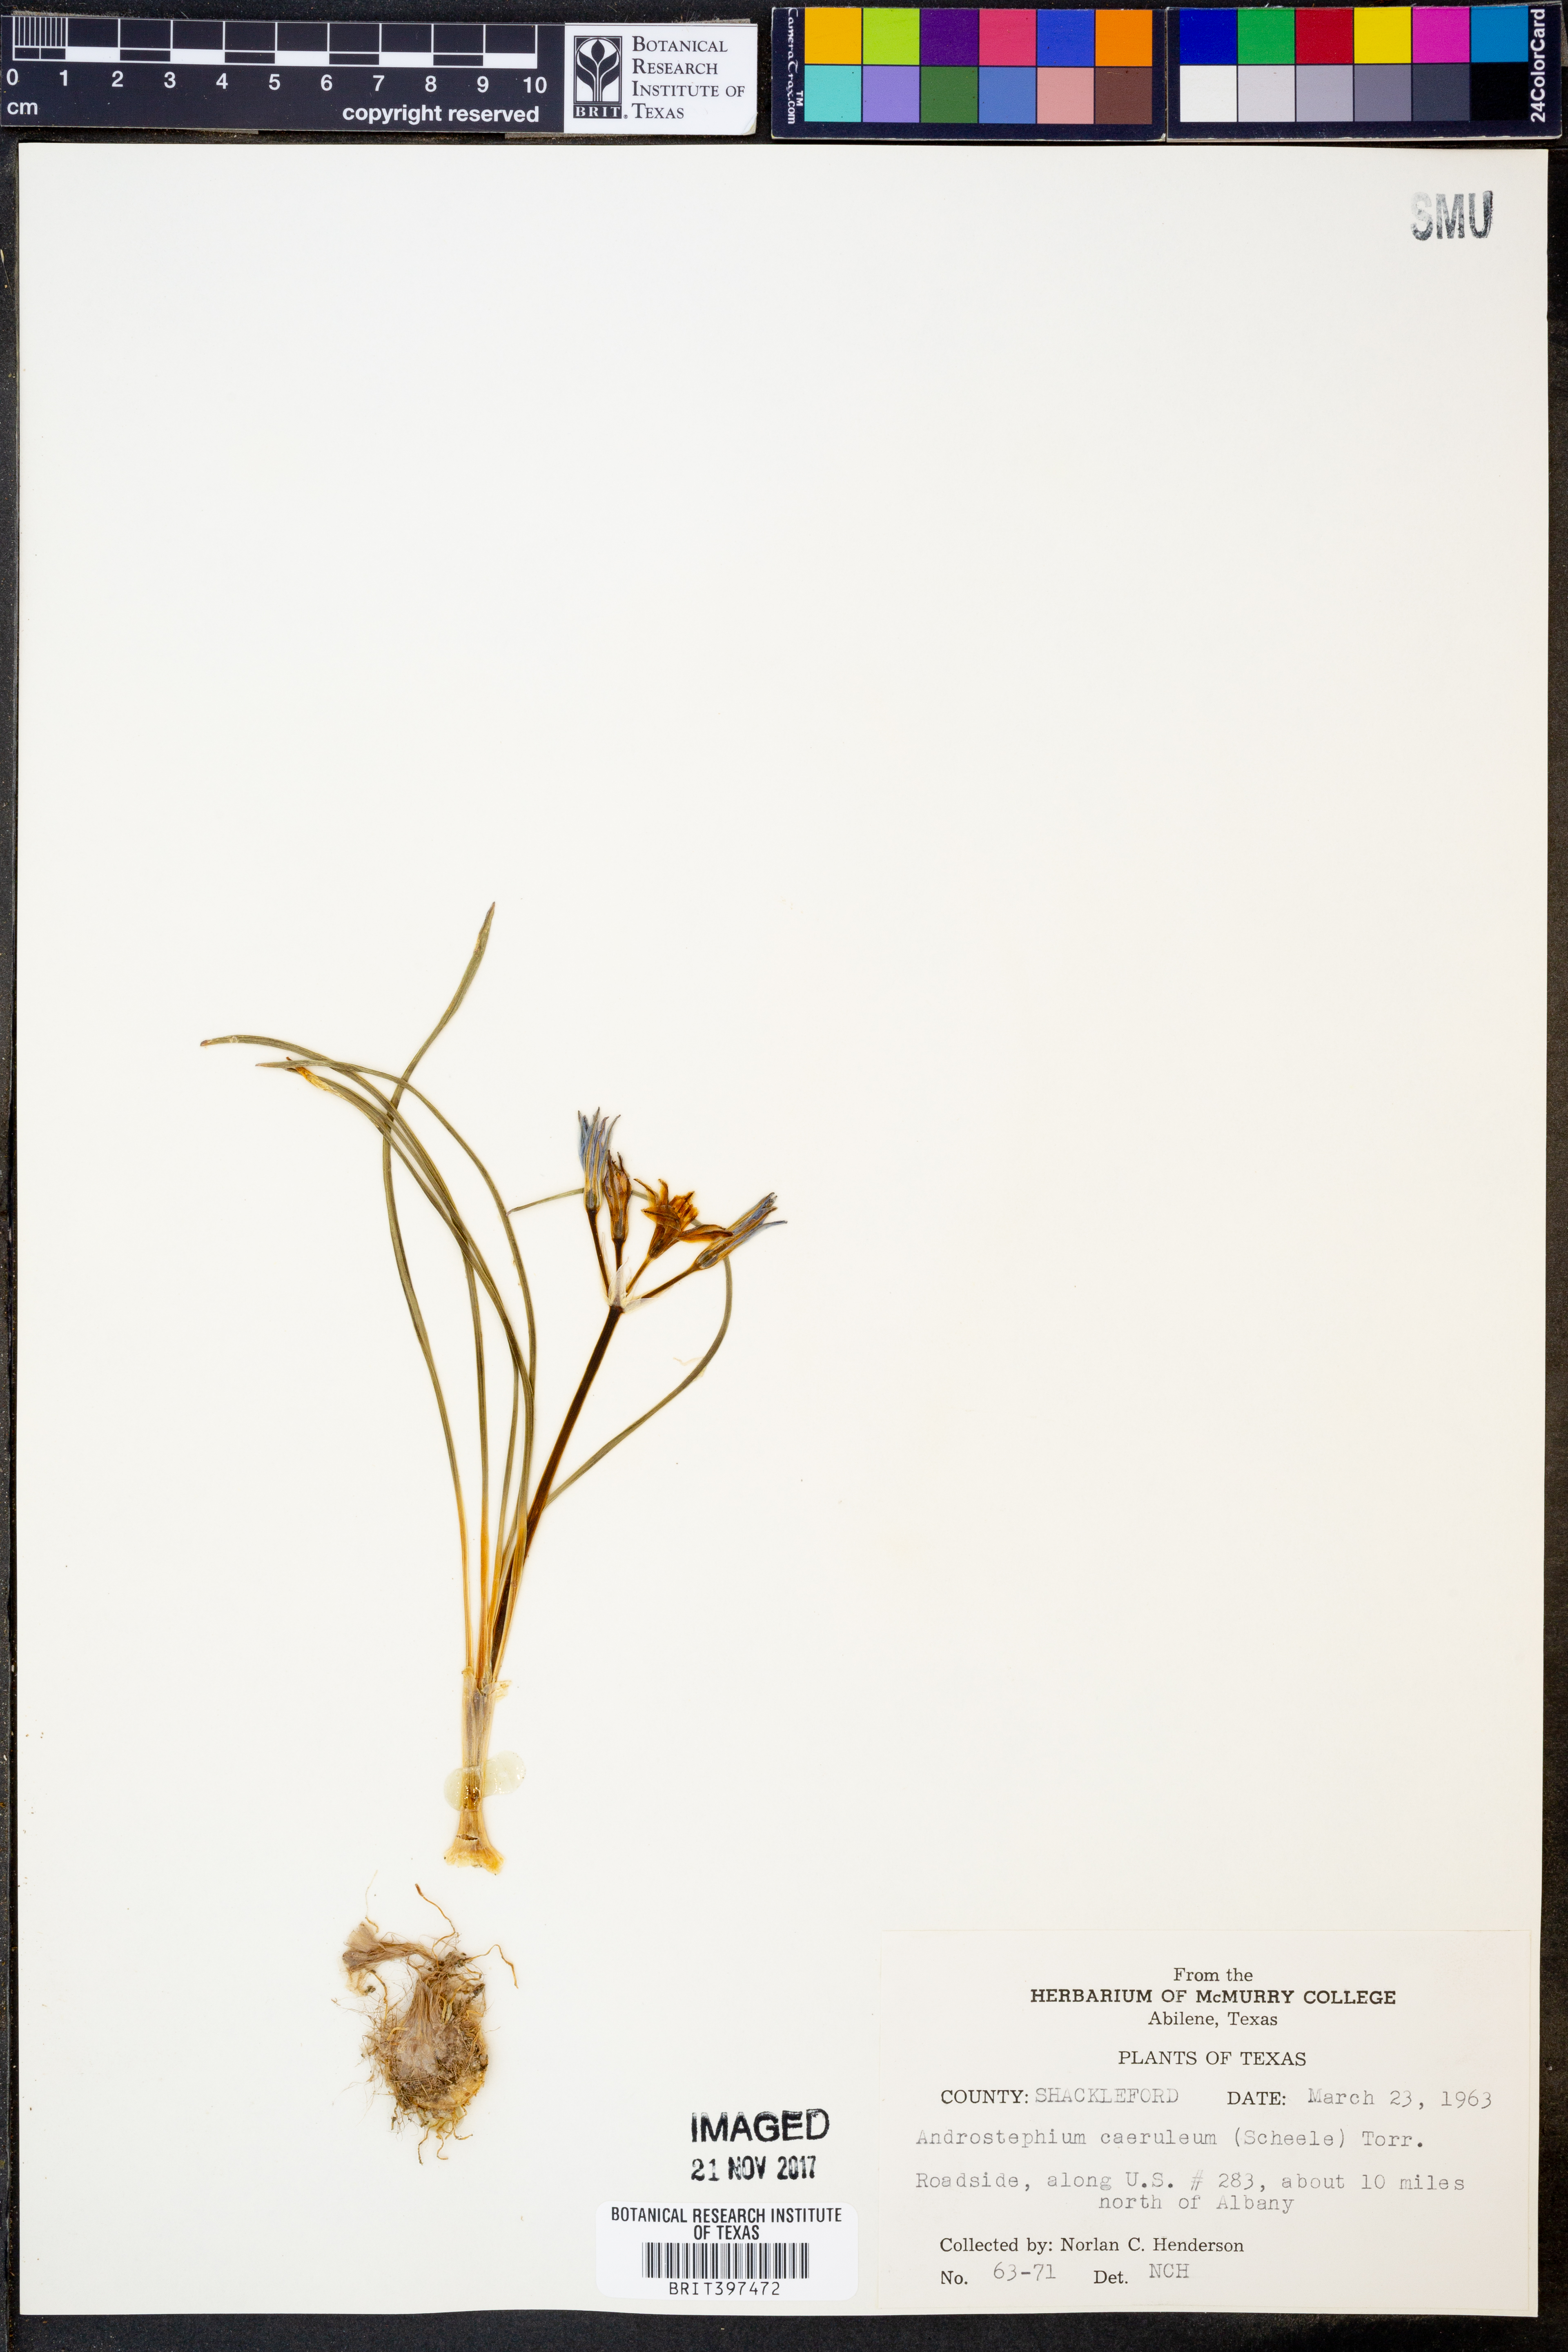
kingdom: Plantae
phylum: Tracheophyta
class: Liliopsida
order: Asparagales
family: Asparagaceae
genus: Androstephium
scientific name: Androstephium caeruleum
